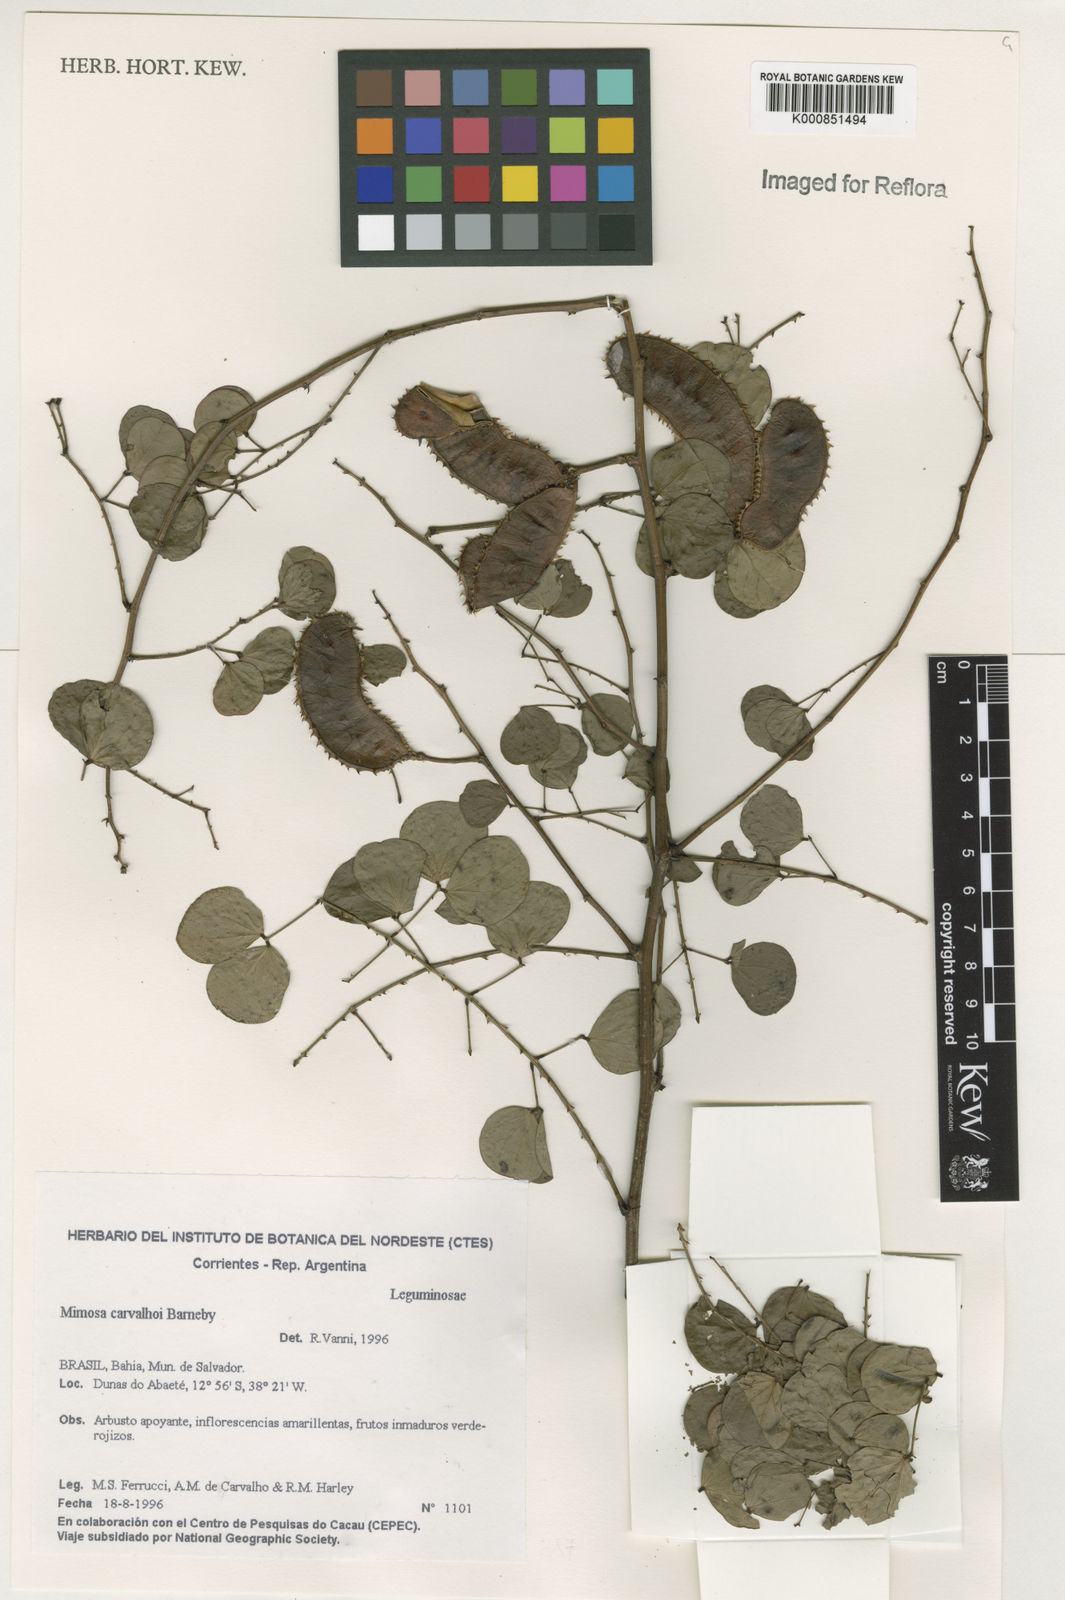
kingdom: Plantae
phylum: Tracheophyta
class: Magnoliopsida
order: Fabales
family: Fabaceae
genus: Mimosa
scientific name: Mimosa carvalhoi
